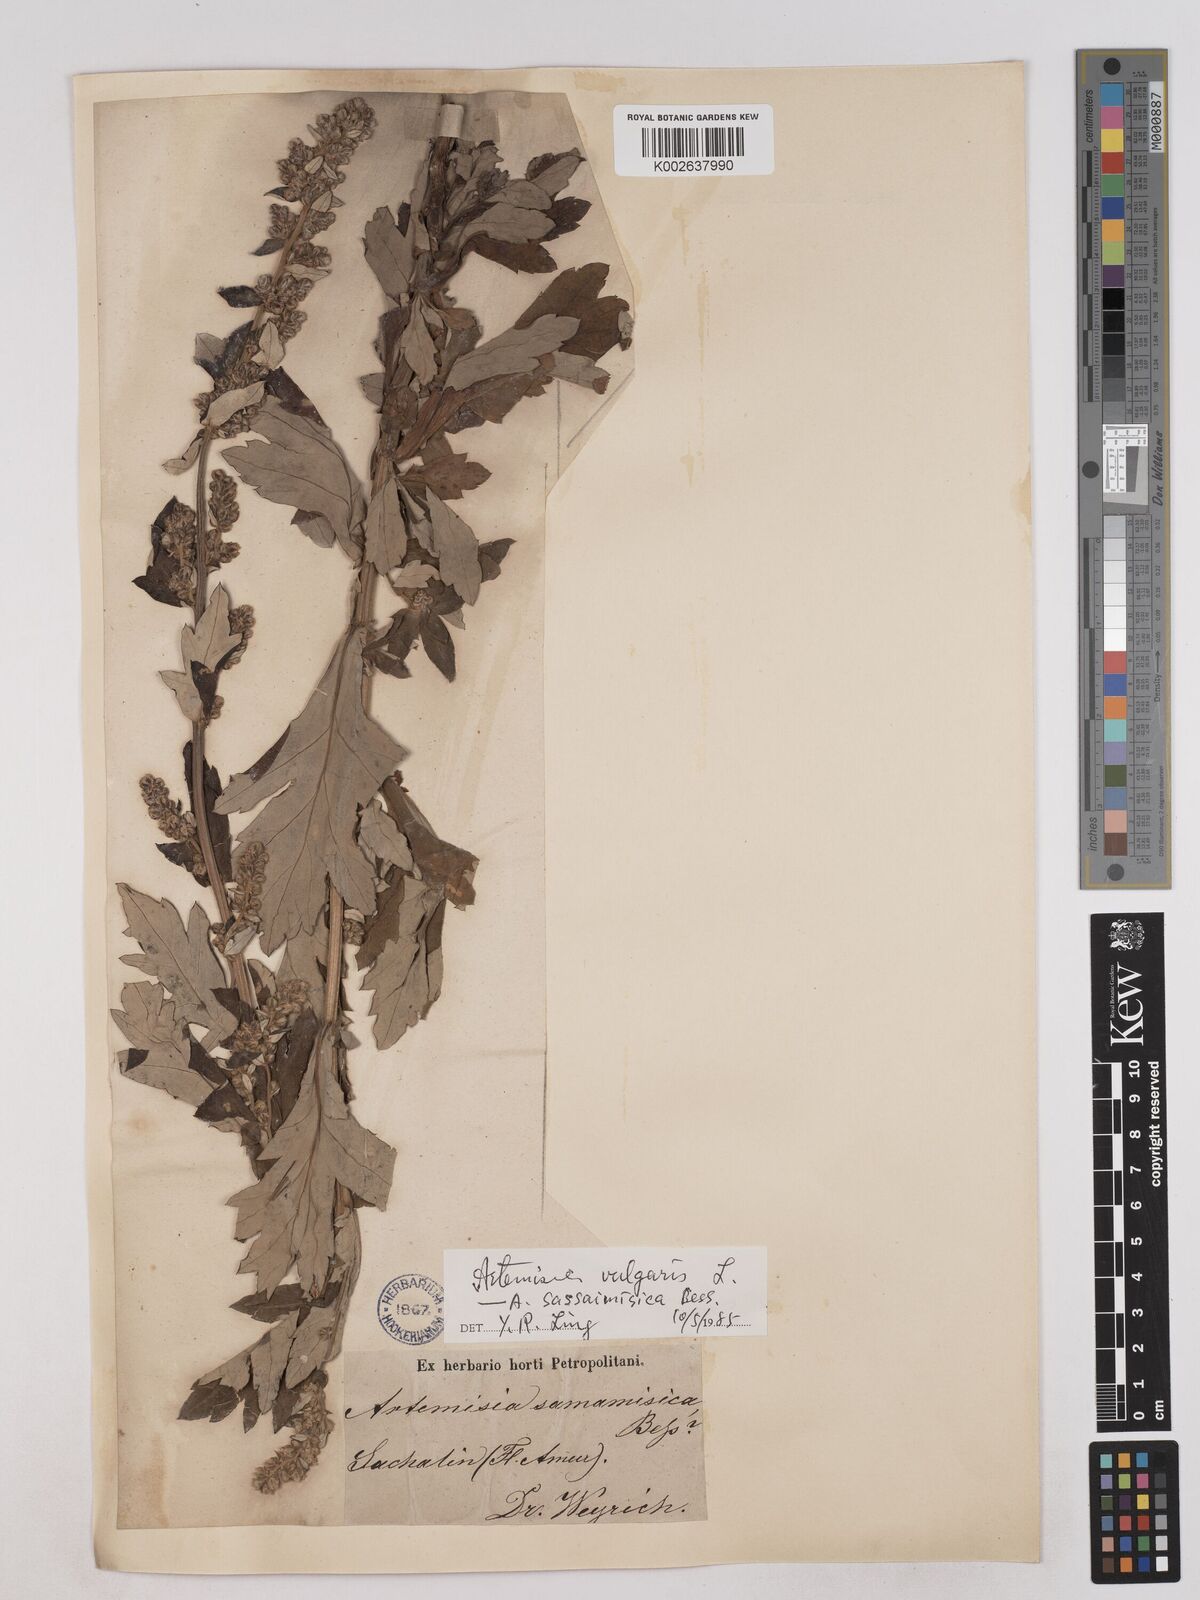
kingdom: Plantae
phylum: Tracheophyta
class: Magnoliopsida
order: Asterales
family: Asteraceae
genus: Artemisia
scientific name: Artemisia igniaria
